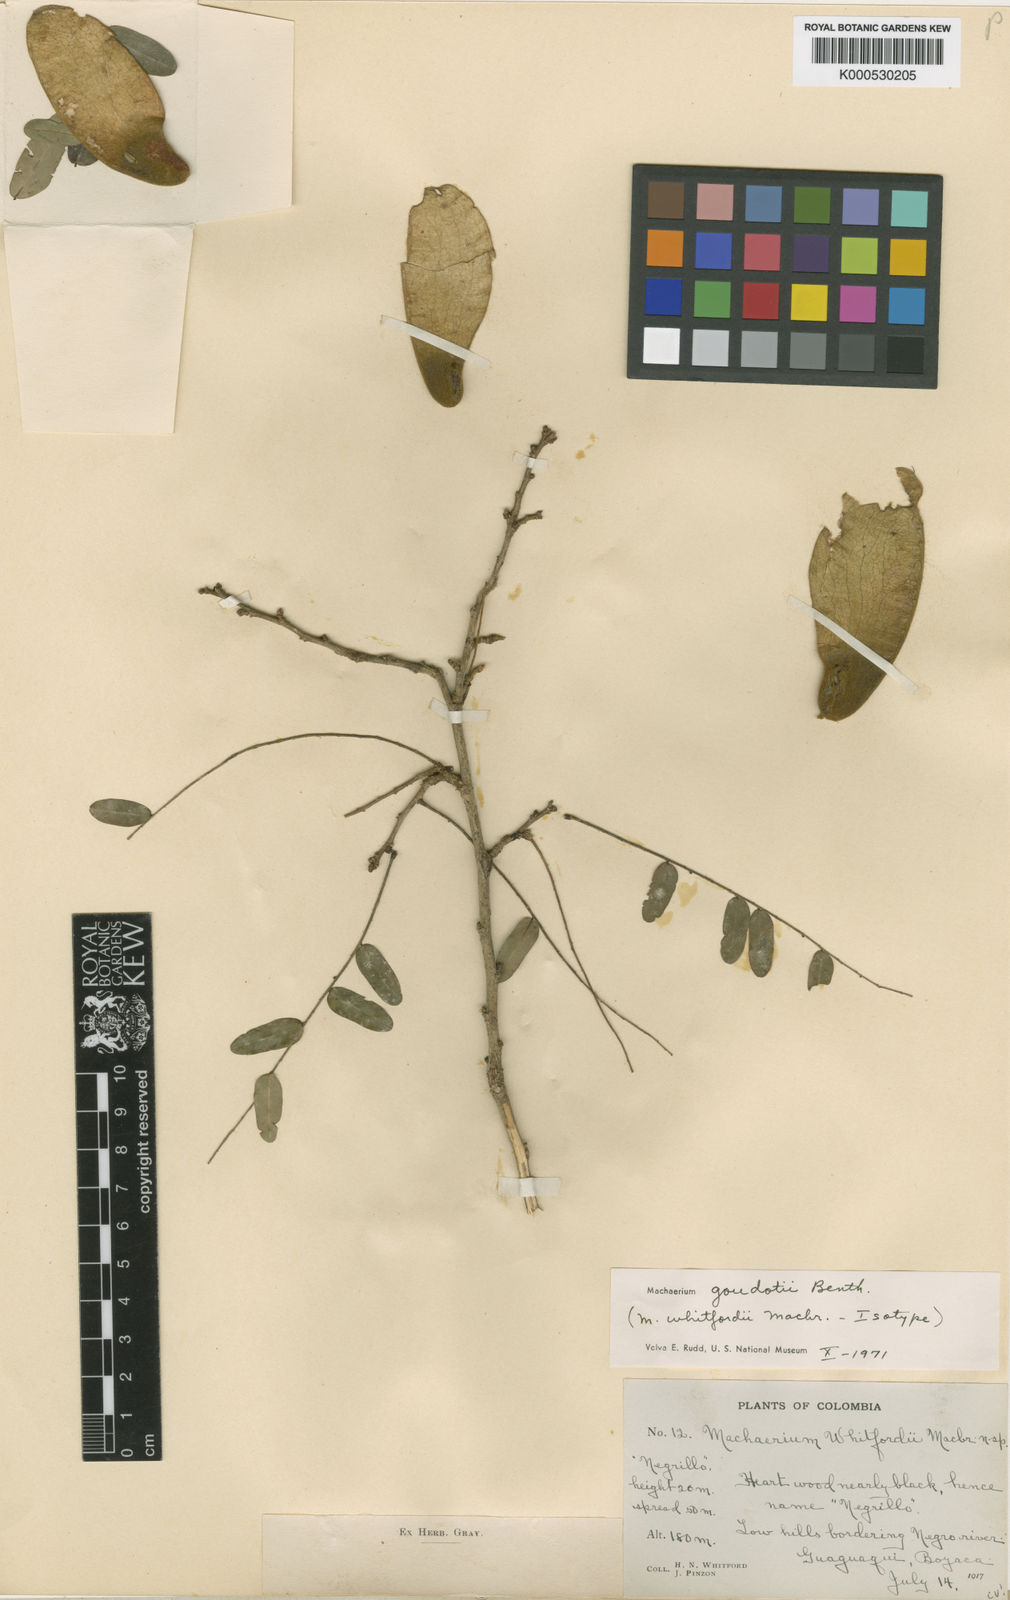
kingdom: Plantae
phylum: Tracheophyta
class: Magnoliopsida
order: Fabales
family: Fabaceae
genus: Machaerium
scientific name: Machaerium goudotii
